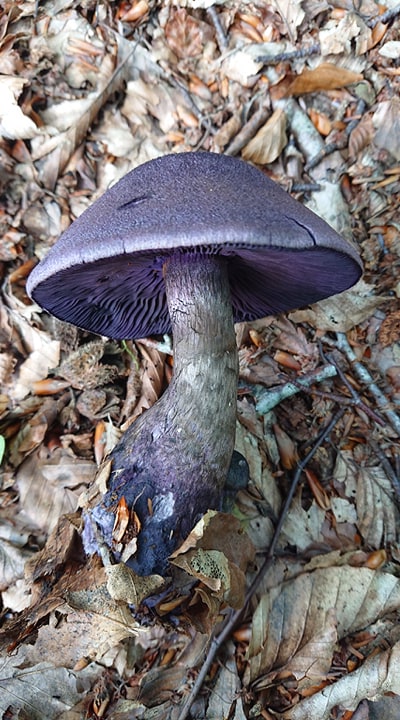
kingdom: Fungi
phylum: Basidiomycota
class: Agaricomycetes
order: Agaricales
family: Cortinariaceae
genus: Cortinarius
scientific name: Cortinarius violaceus
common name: mørkviolet slørhat
